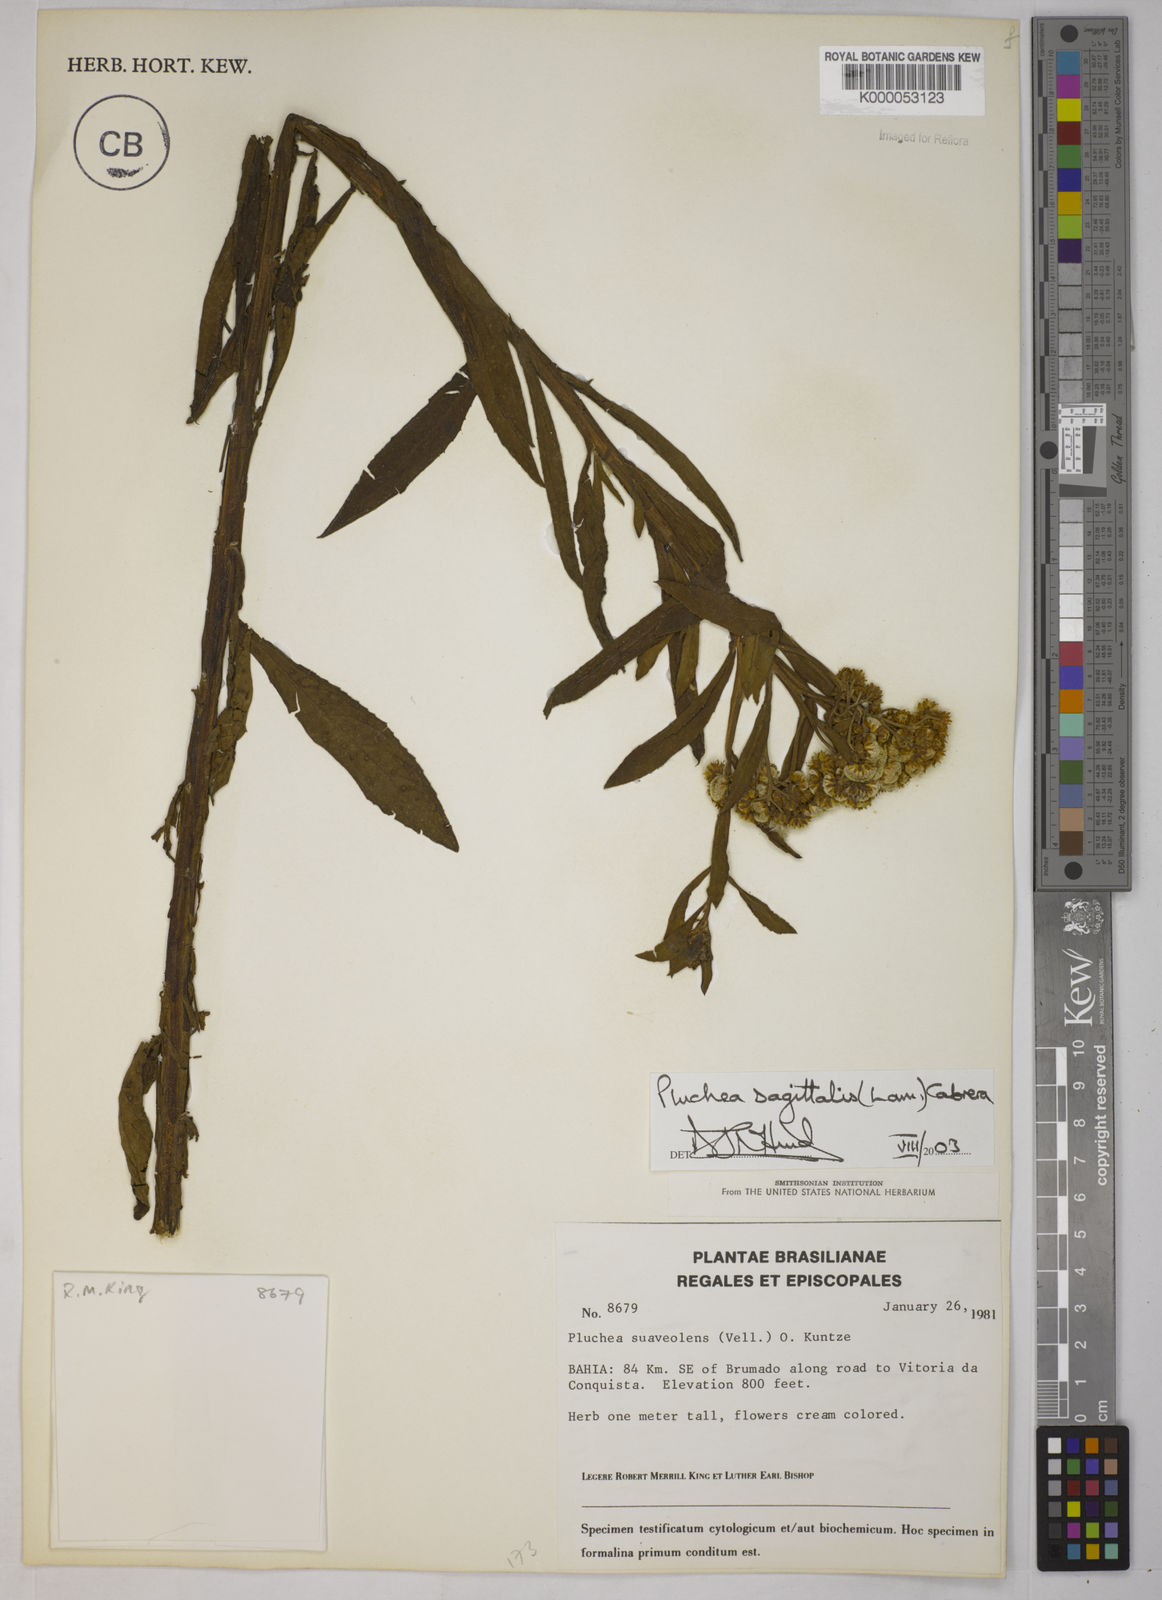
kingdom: Plantae
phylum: Tracheophyta
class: Magnoliopsida
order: Asterales
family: Asteraceae
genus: Pluchea
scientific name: Pluchea sagittalis
